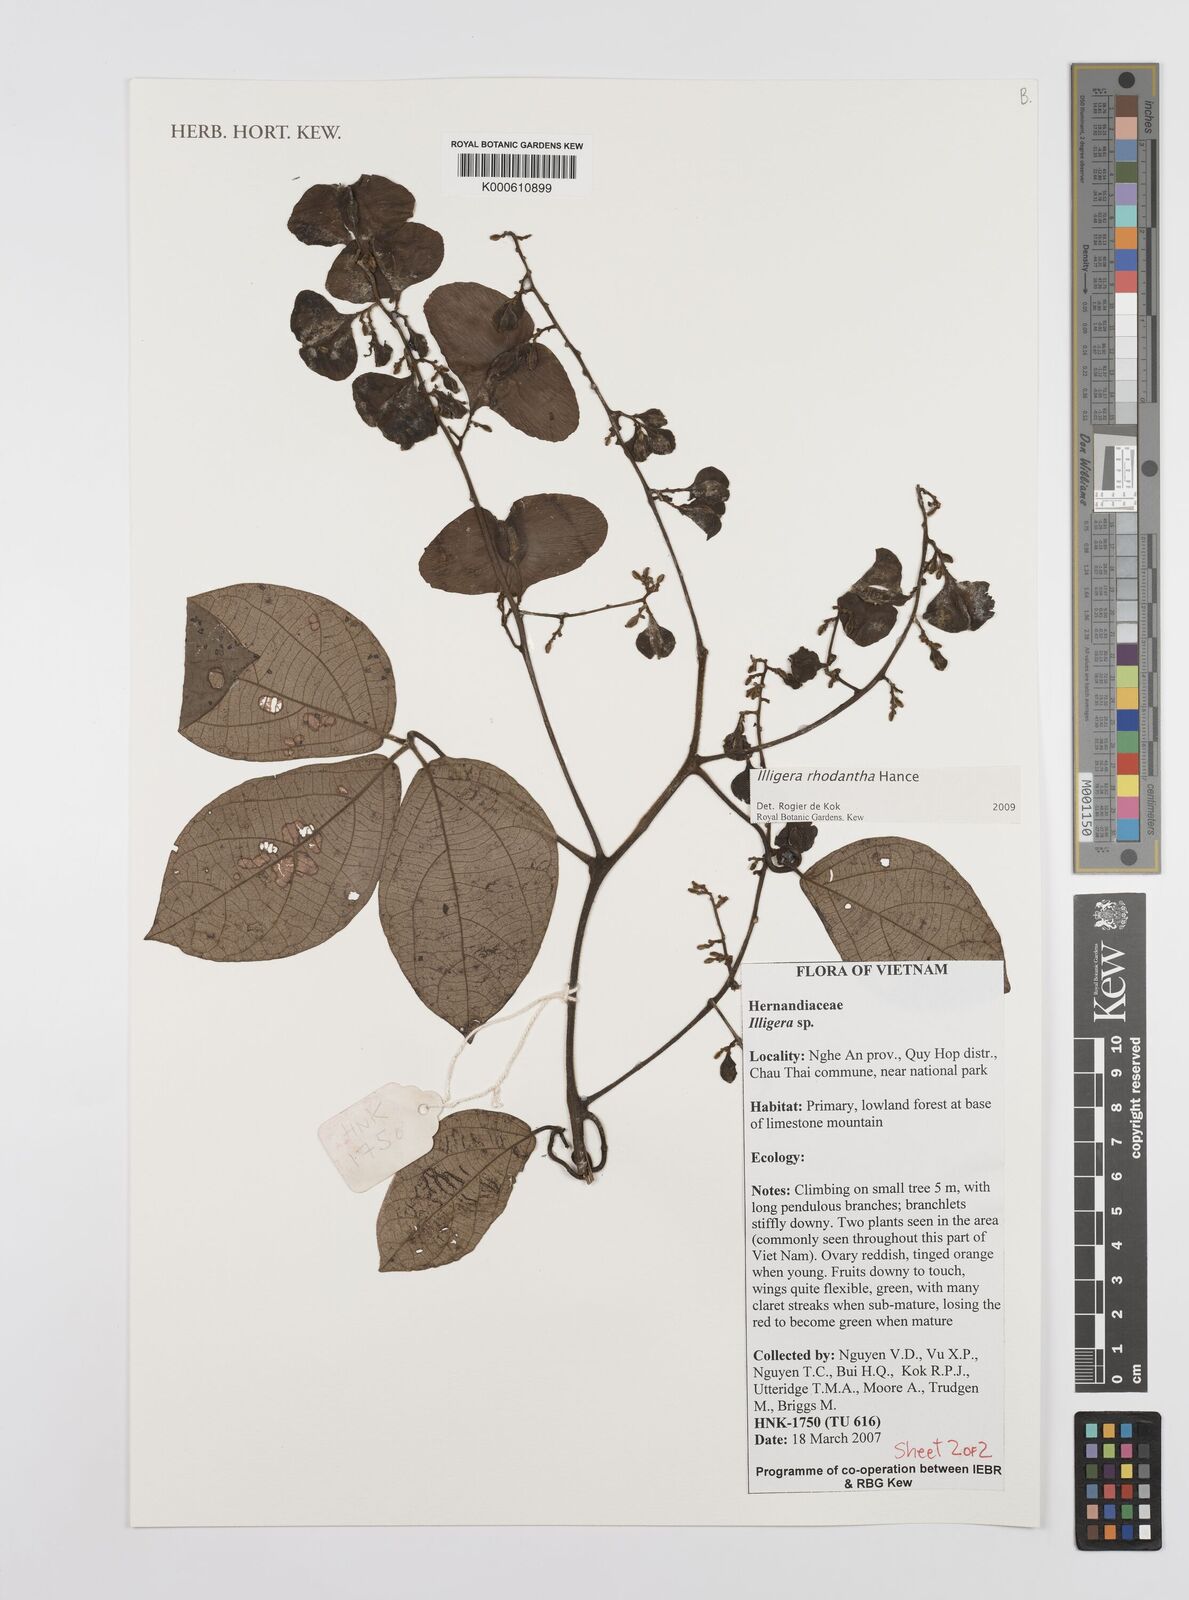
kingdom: Plantae
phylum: Tracheophyta
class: Magnoliopsida
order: Laurales
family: Hernandiaceae
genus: Illigera
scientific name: Illigera rhodantha
